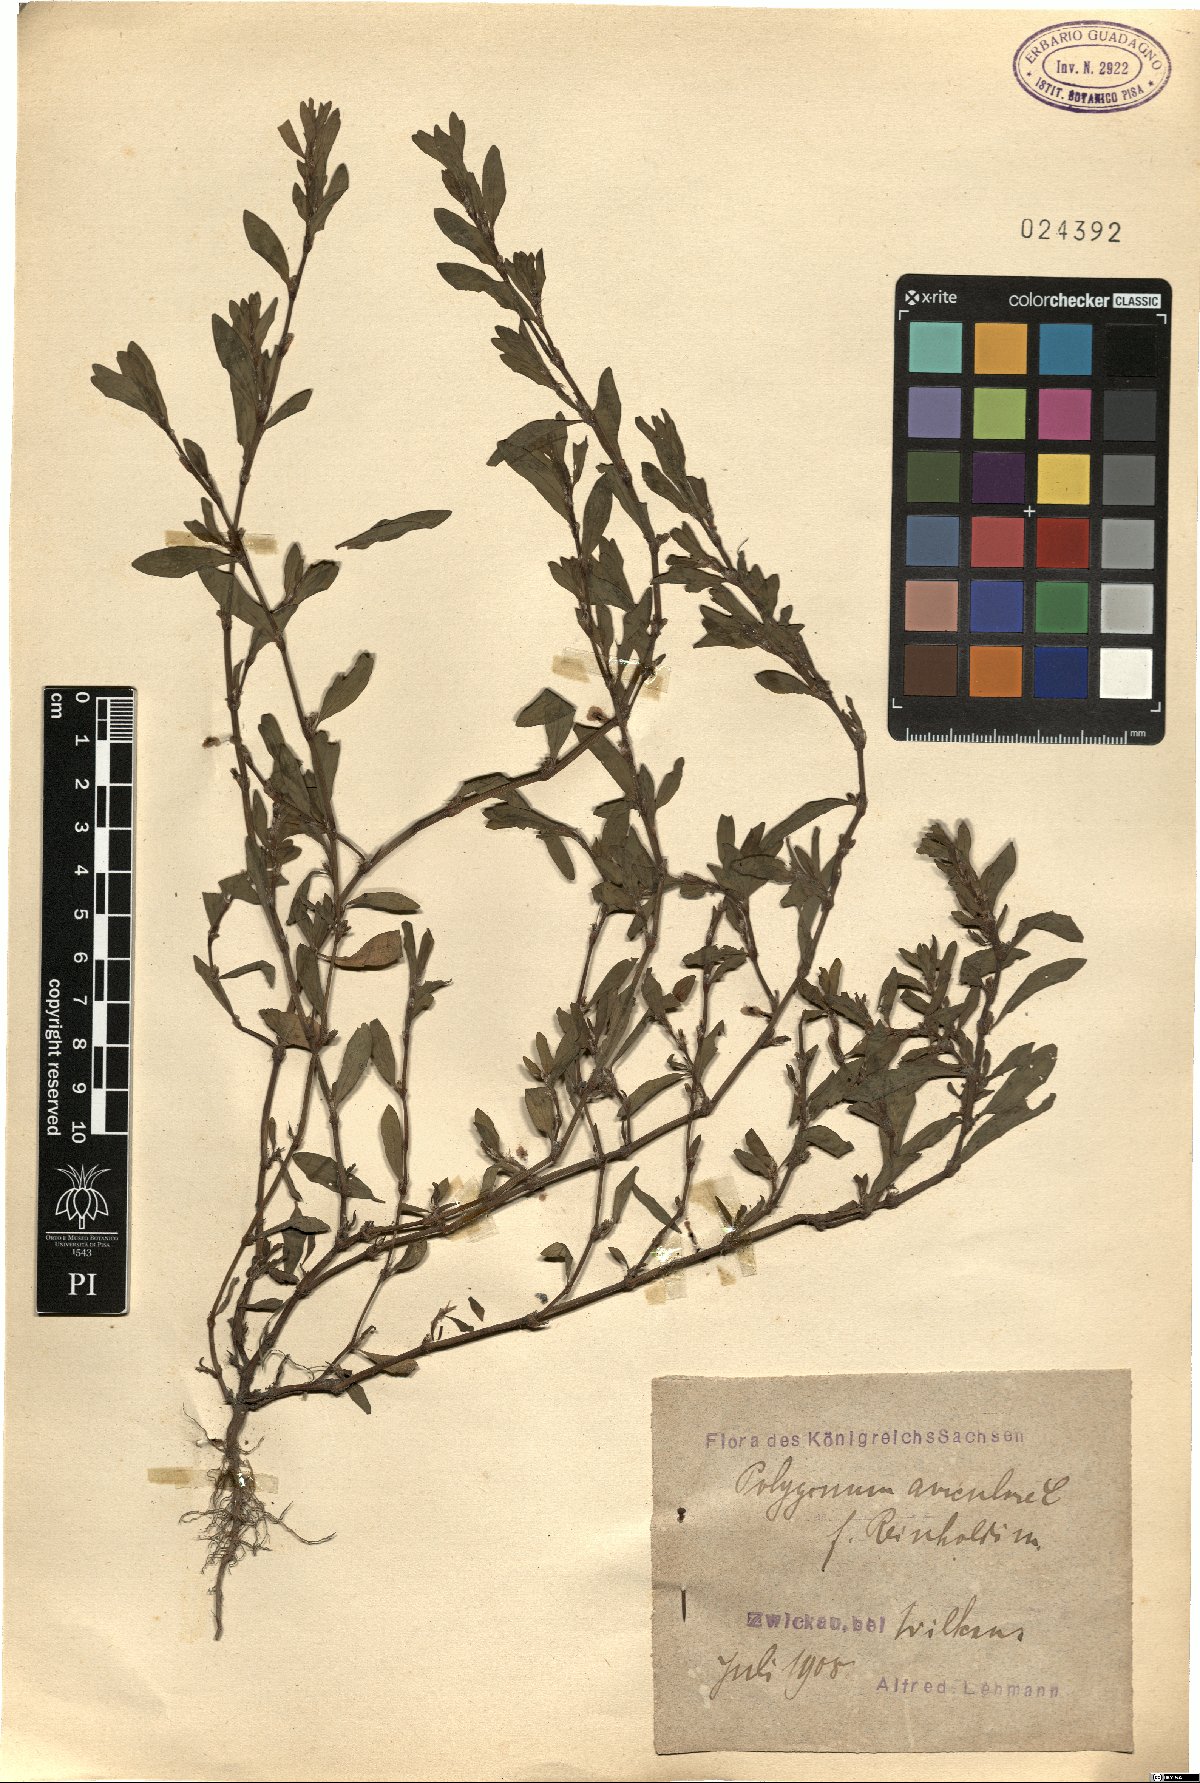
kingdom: Plantae
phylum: Tracheophyta
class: Magnoliopsida
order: Caryophyllales
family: Polygonaceae
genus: Polygonum
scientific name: Polygonum aviculare
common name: Prostrate knotweed
